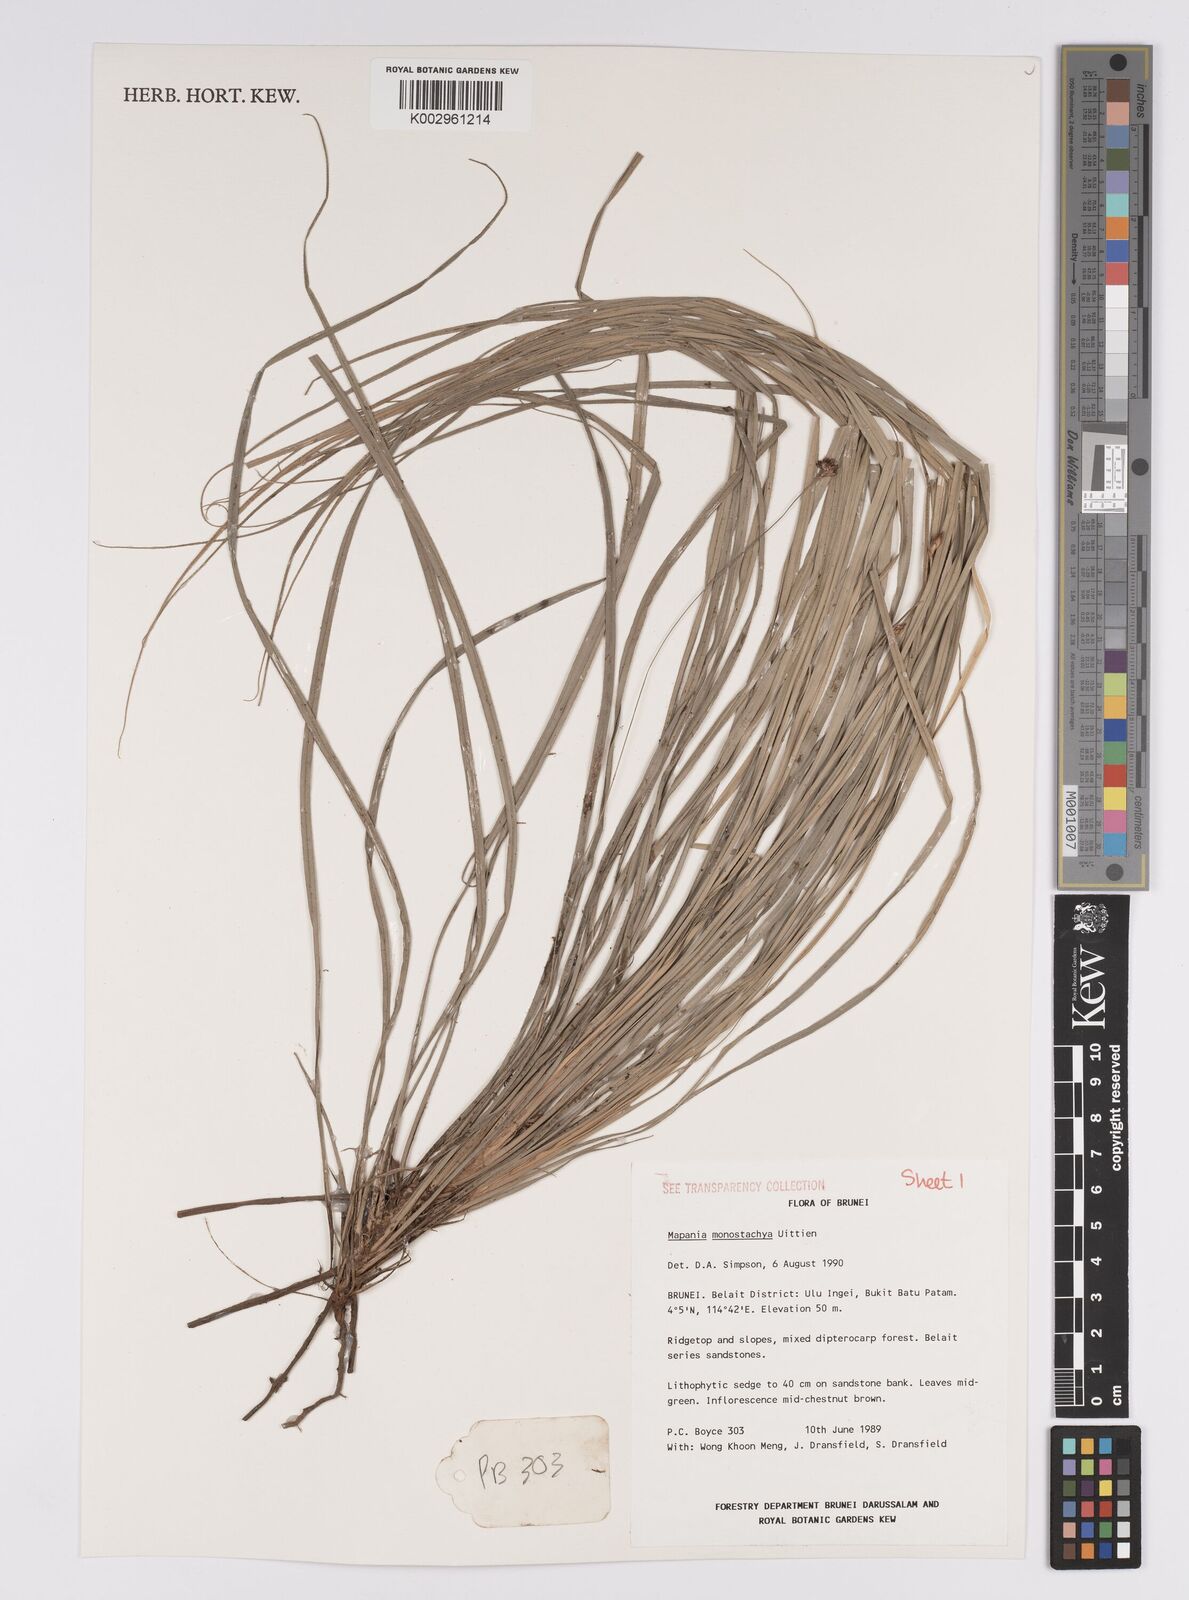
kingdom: Plantae
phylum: Tracheophyta
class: Liliopsida
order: Poales
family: Cyperaceae
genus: Mapania
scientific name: Mapania monostachya
